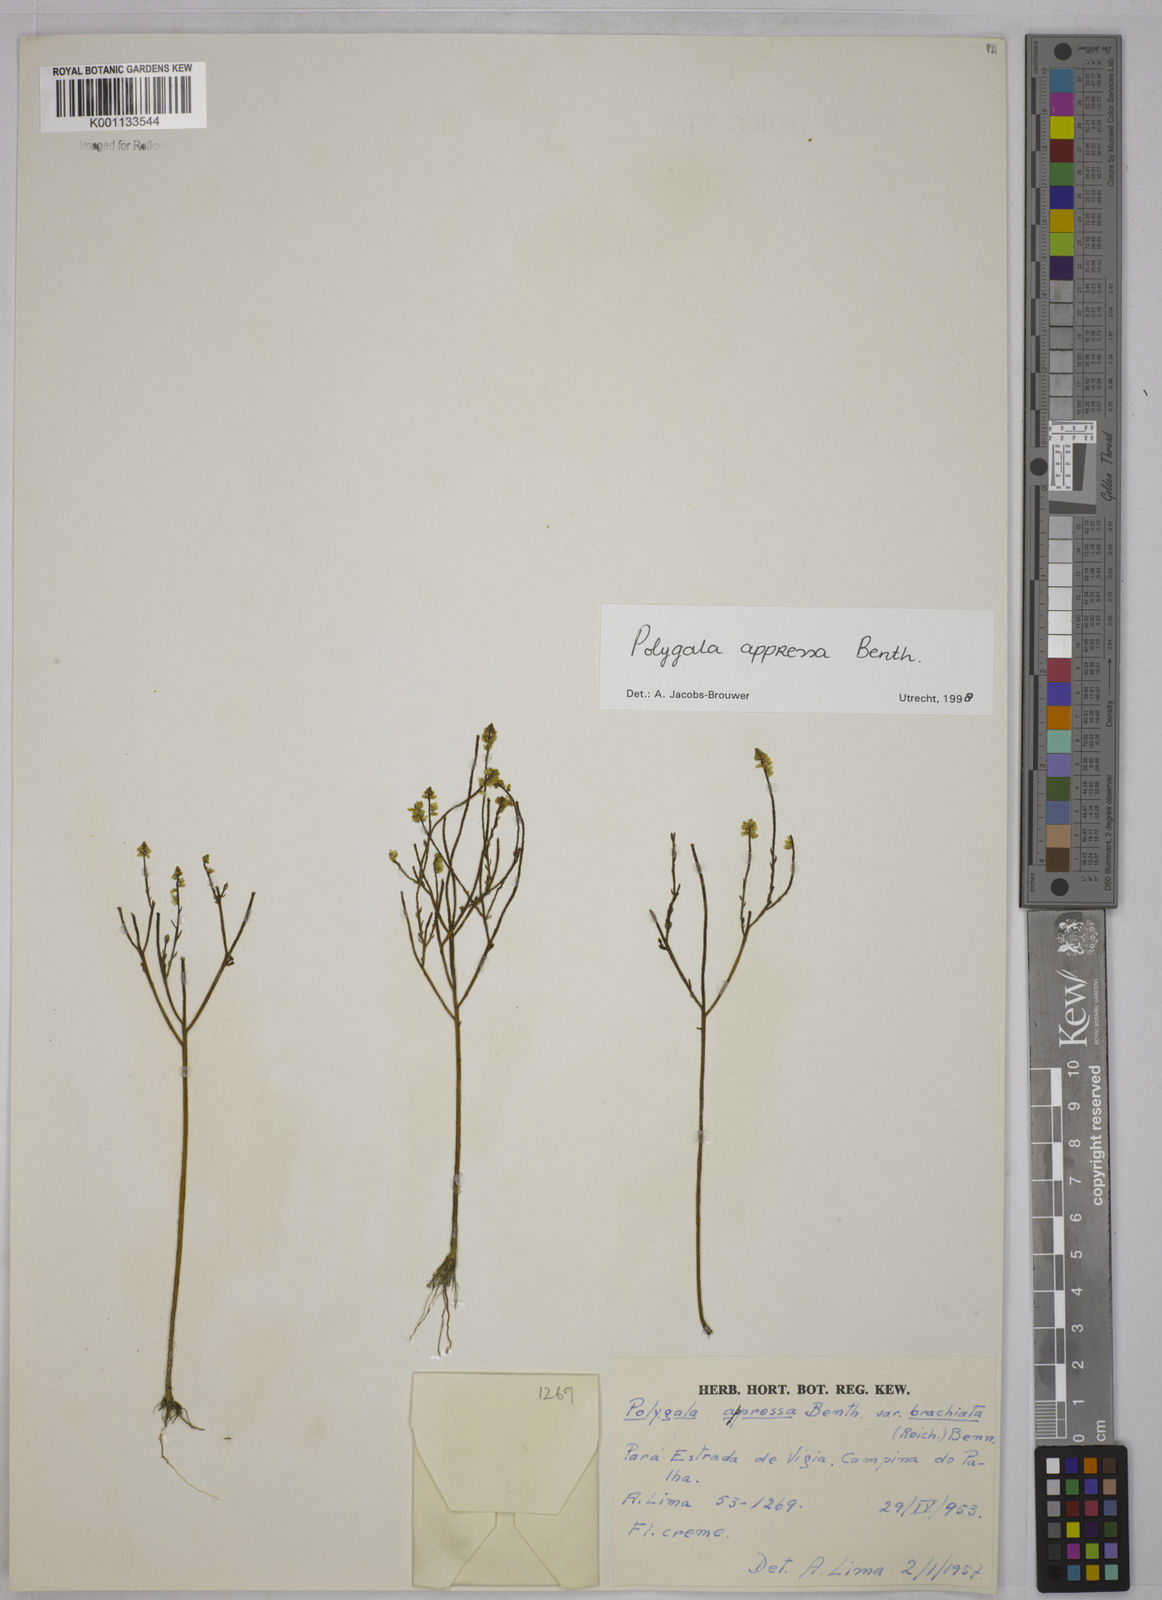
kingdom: Plantae
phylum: Tracheophyta
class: Magnoliopsida
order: Fabales
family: Polygalaceae
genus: Polygala
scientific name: Polygala appressa
